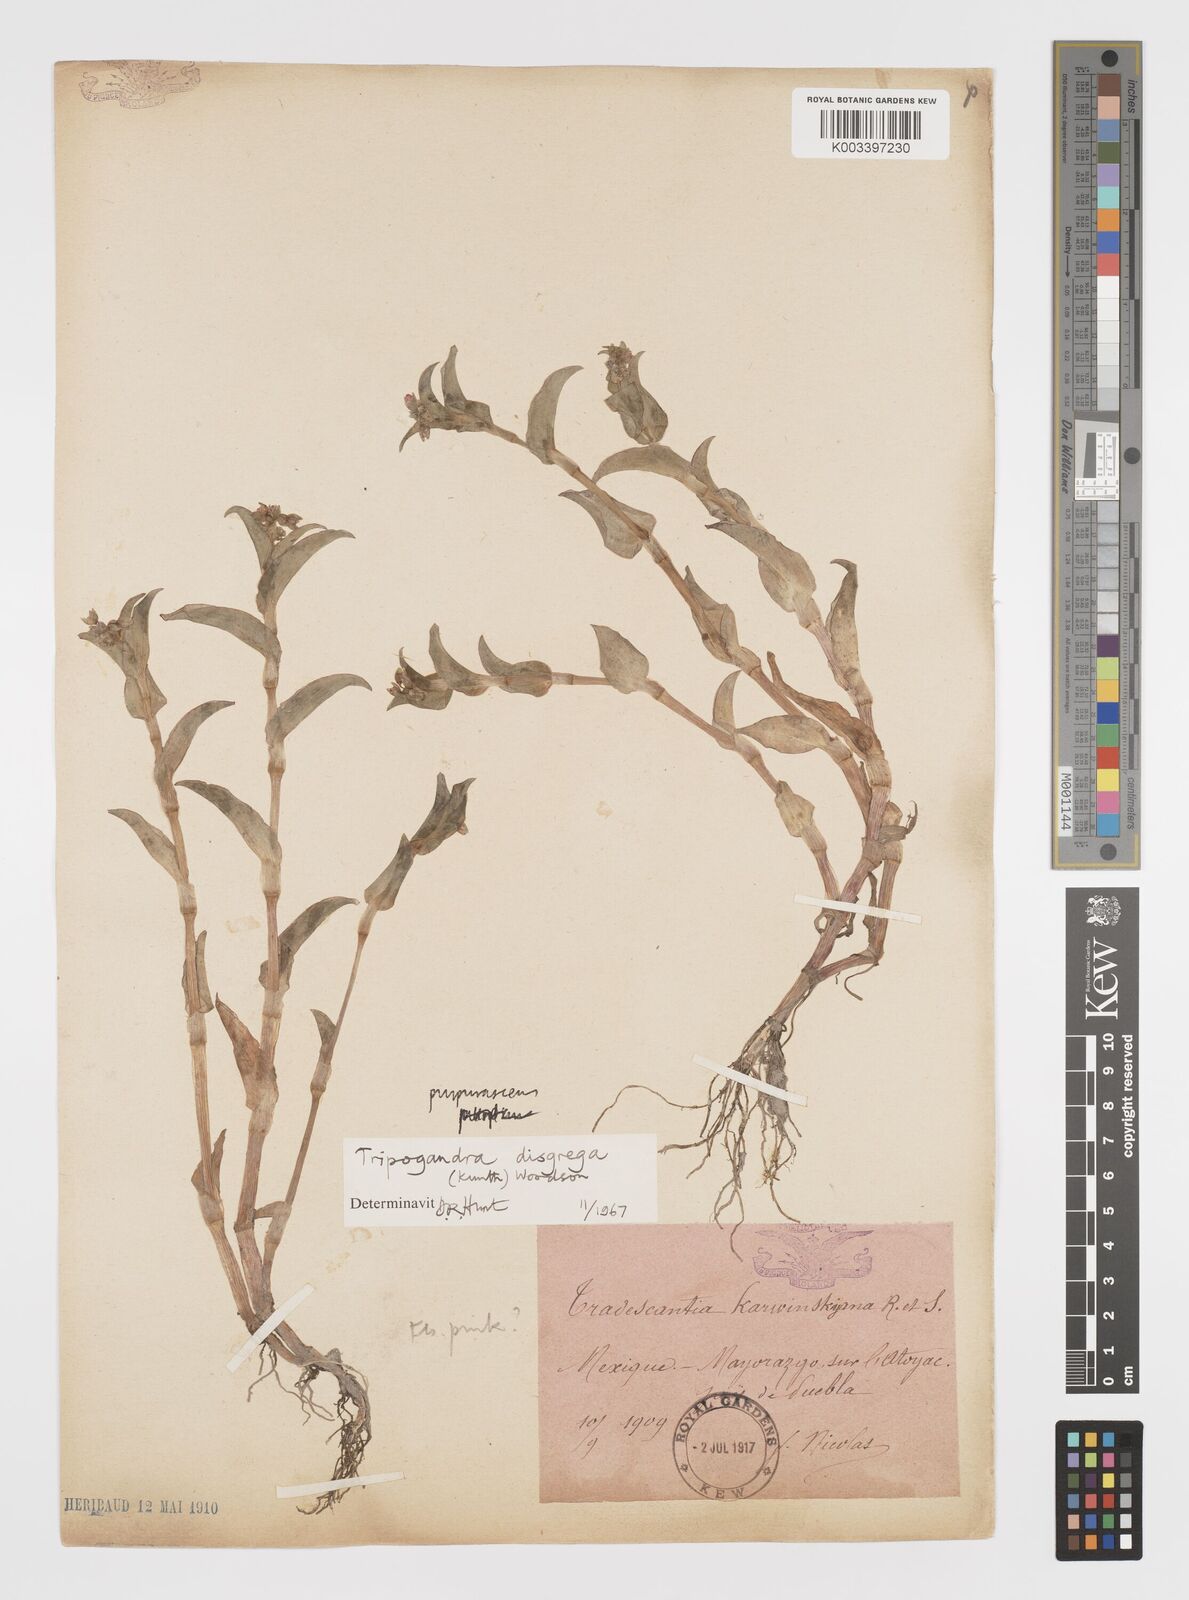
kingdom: Plantae
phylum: Tracheophyta
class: Liliopsida
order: Commelinales
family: Commelinaceae
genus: Callisia
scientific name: Callisia disgrega
